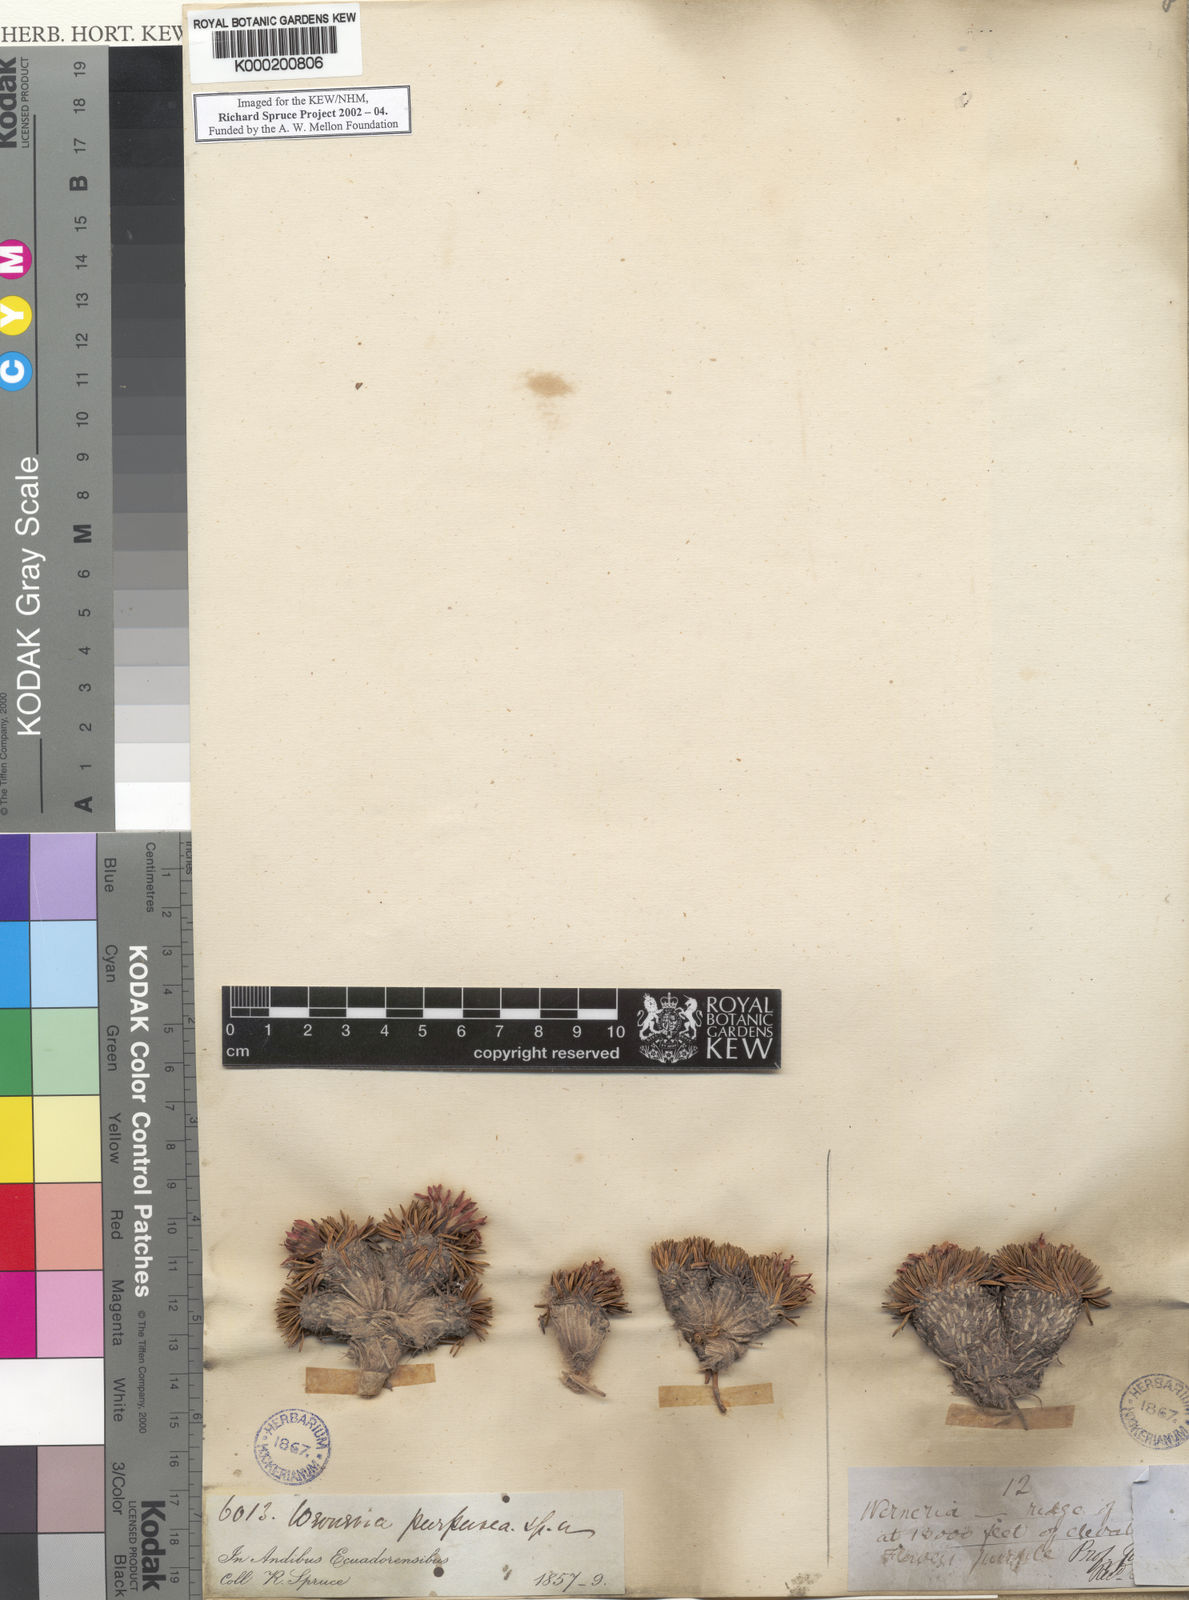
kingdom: Plantae
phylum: Tracheophyta
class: Magnoliopsida
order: Asterales
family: Asteraceae
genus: Werneria
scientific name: Werneria rosea
